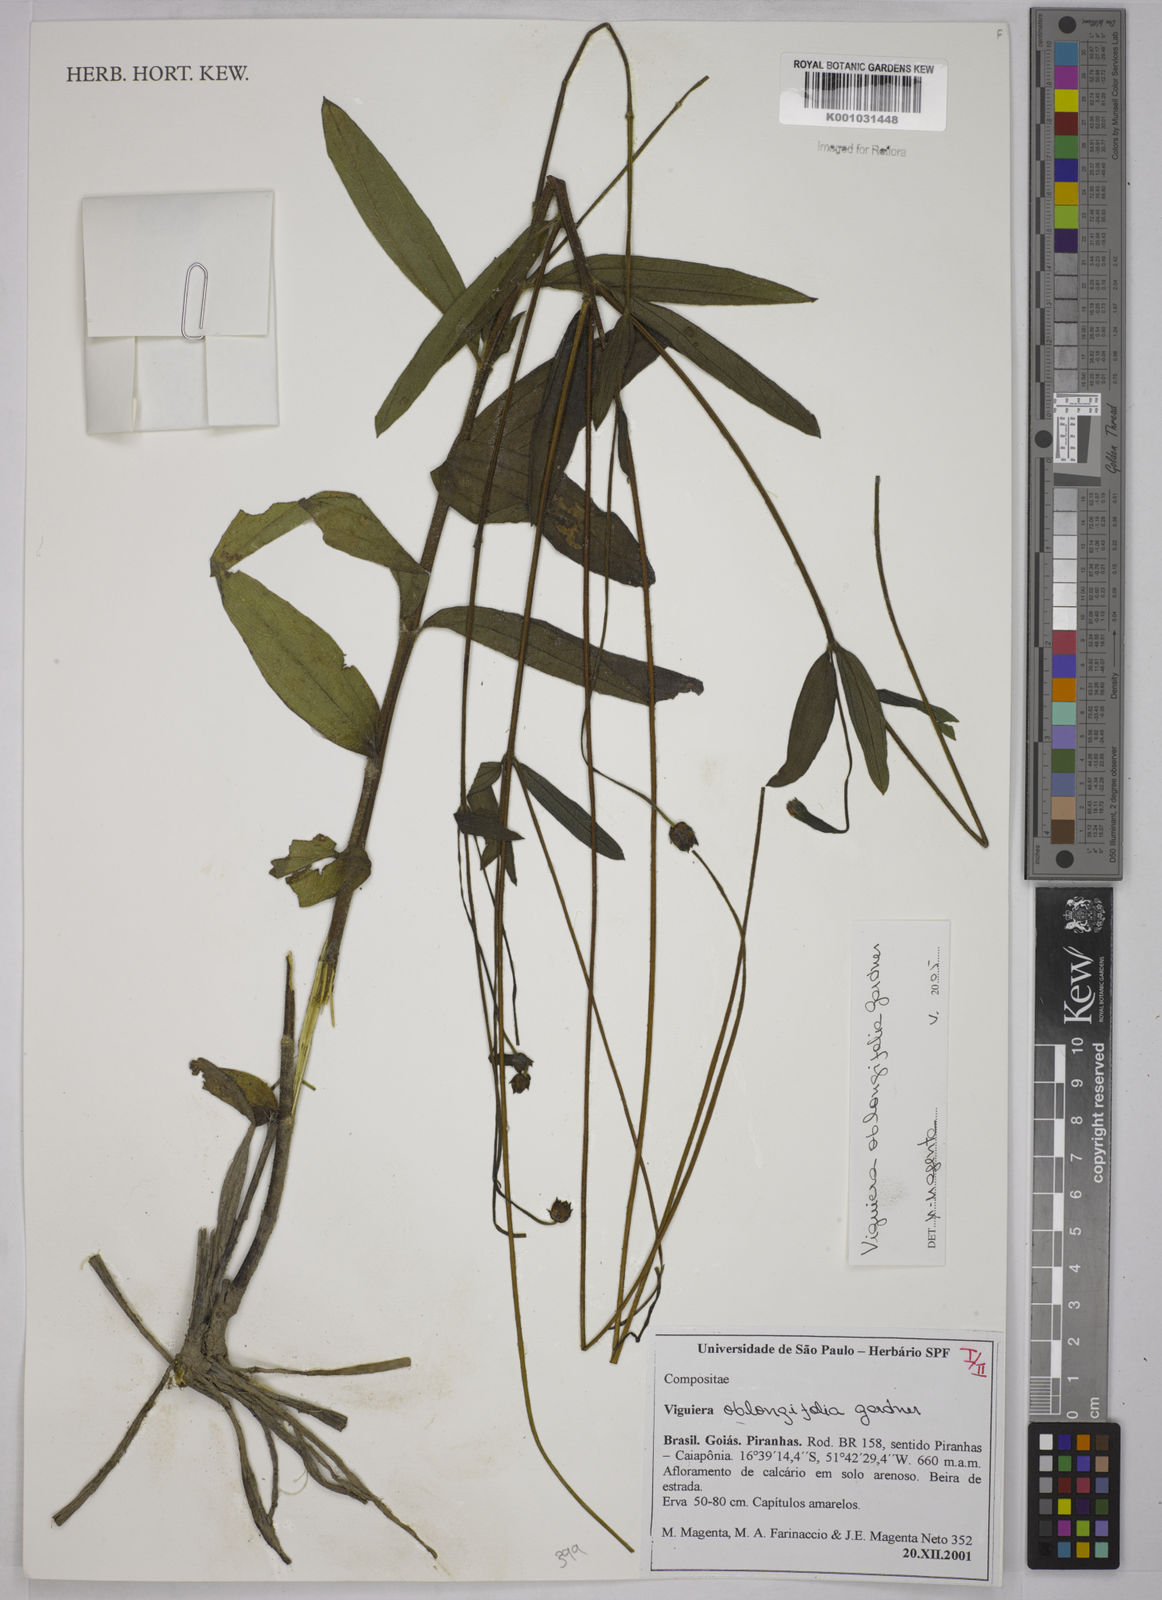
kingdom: Plantae
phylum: Tracheophyta
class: Magnoliopsida
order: Asterales
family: Asteraceae
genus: Aldama
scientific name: Aldama oblongifolia
